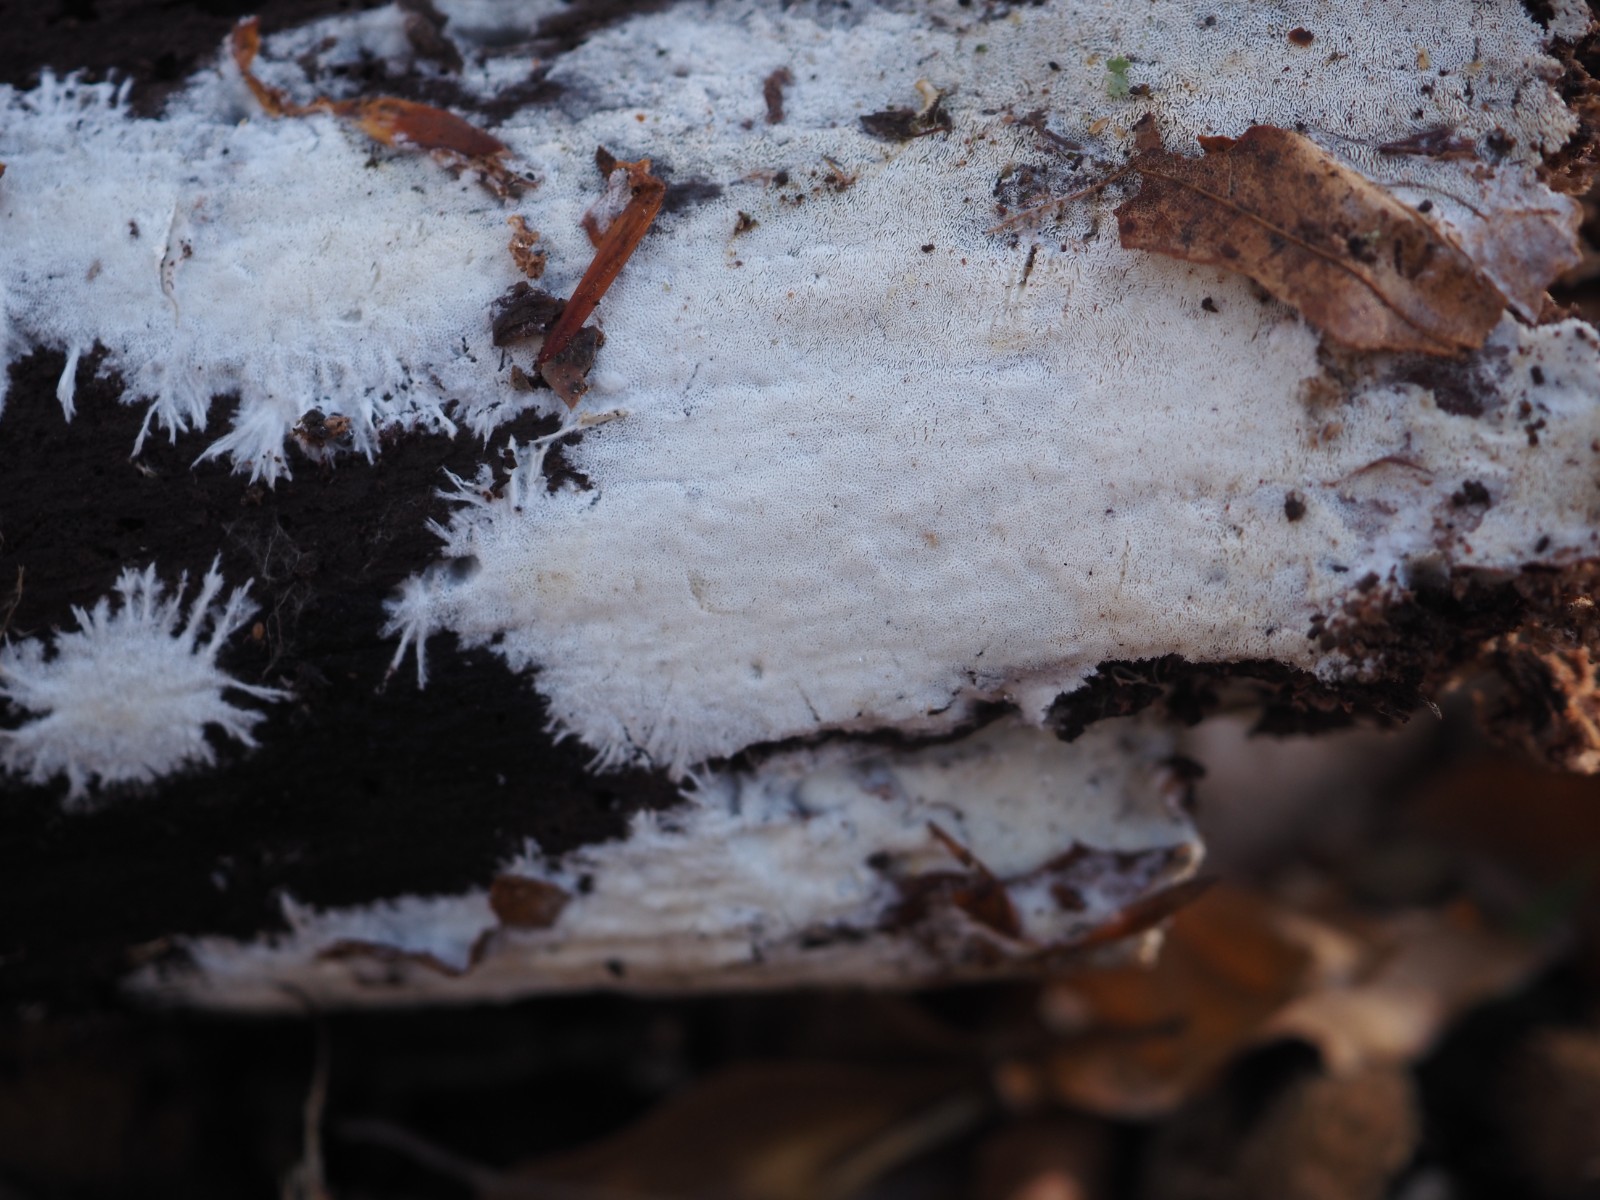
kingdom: Fungi
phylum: Basidiomycota
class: Agaricomycetes
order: Trechisporales
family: Sistotremataceae
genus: Trechispora
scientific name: Trechispora hymenocystis
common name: poret vathinde
